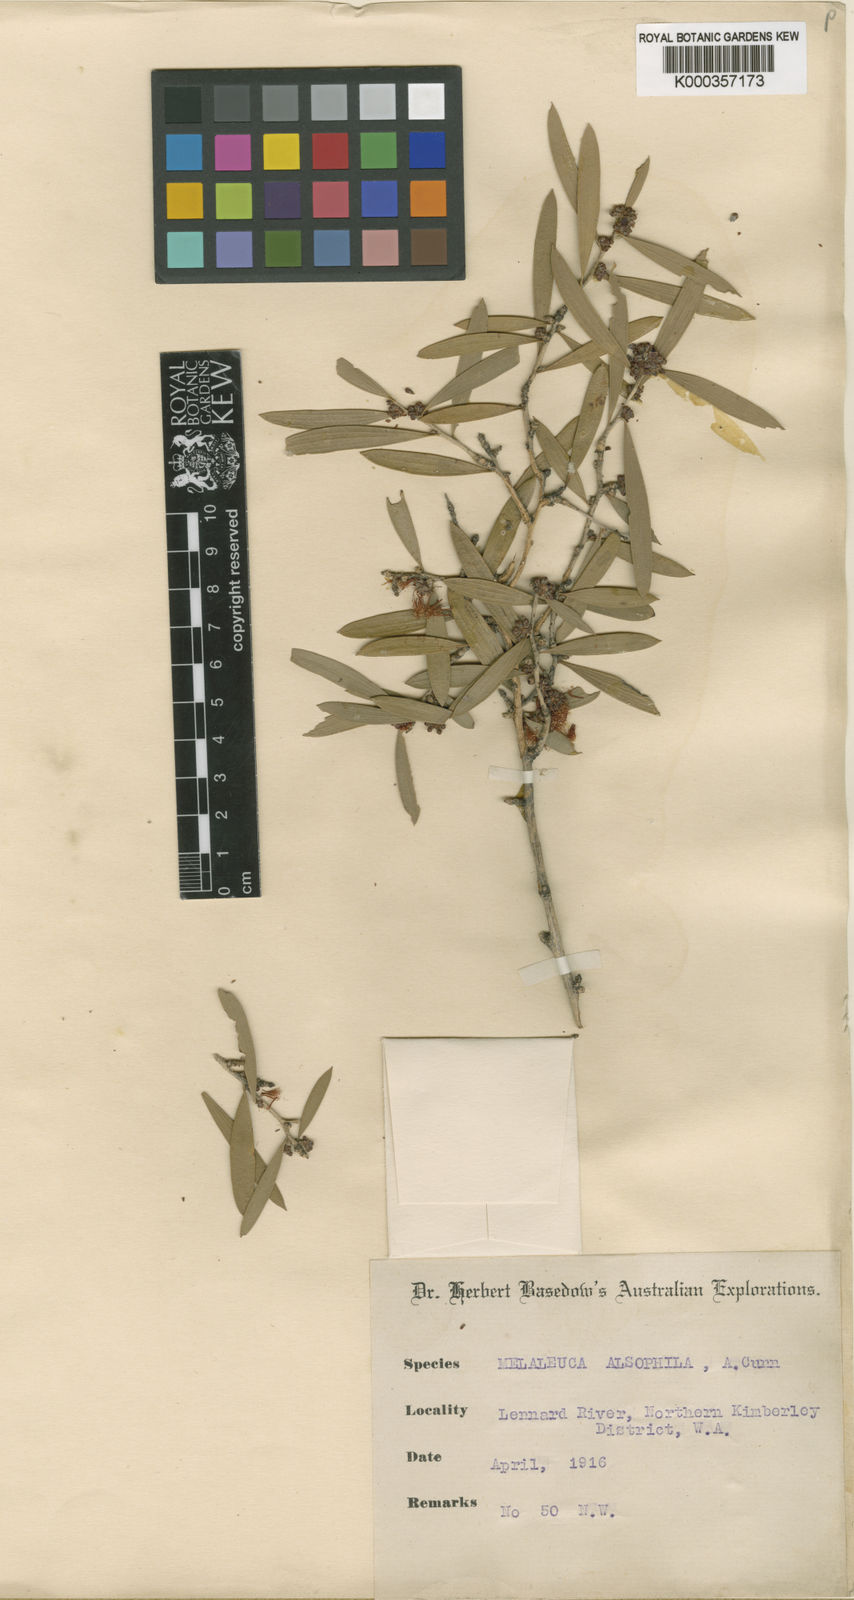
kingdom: Plantae
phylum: Tracheophyta
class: Magnoliopsida
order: Myrtales
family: Myrtaceae
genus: Melaleuca
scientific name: Melaleuca alsophila
